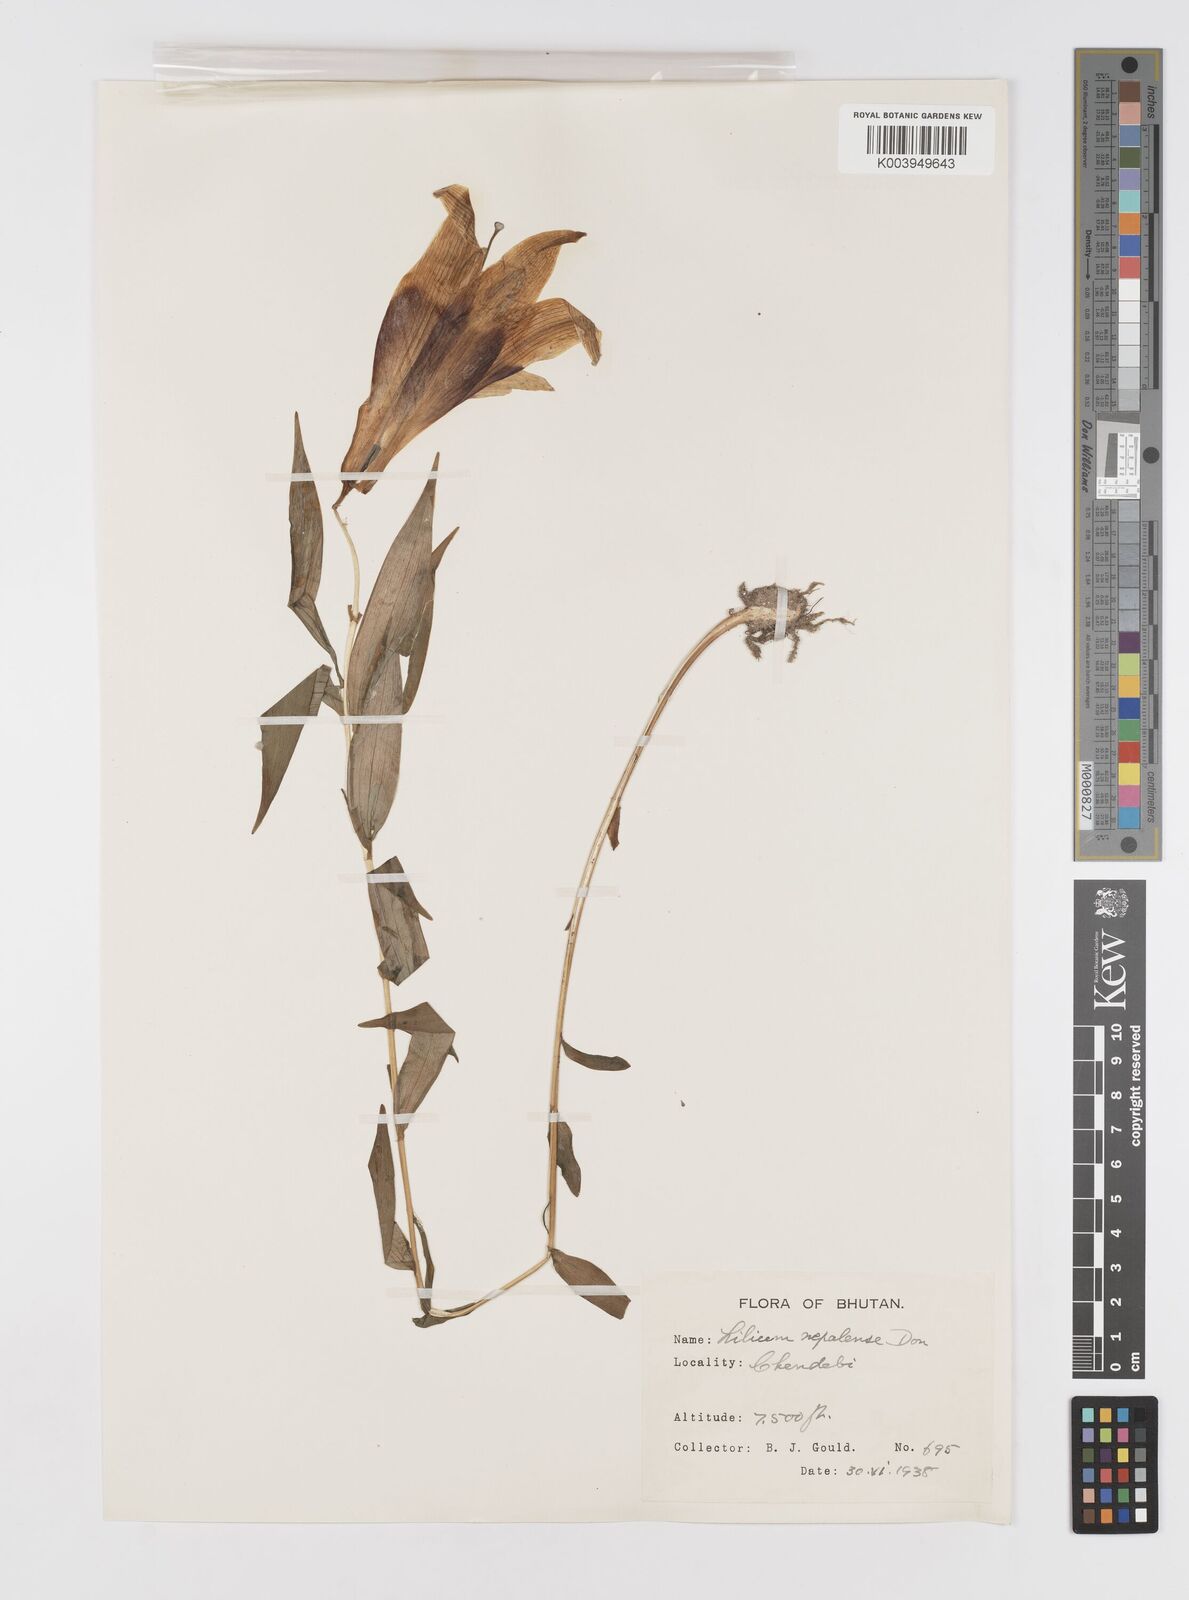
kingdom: Plantae
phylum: Tracheophyta
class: Liliopsida
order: Liliales
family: Liliaceae
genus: Lilium
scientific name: Lilium nepalense
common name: Nepal lily
